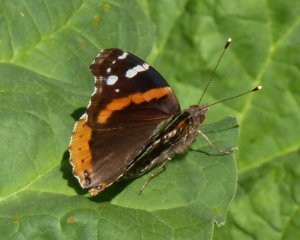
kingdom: Animalia
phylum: Arthropoda
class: Insecta
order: Lepidoptera
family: Nymphalidae
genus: Vanessa
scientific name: Vanessa atalanta
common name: Red Admiral
